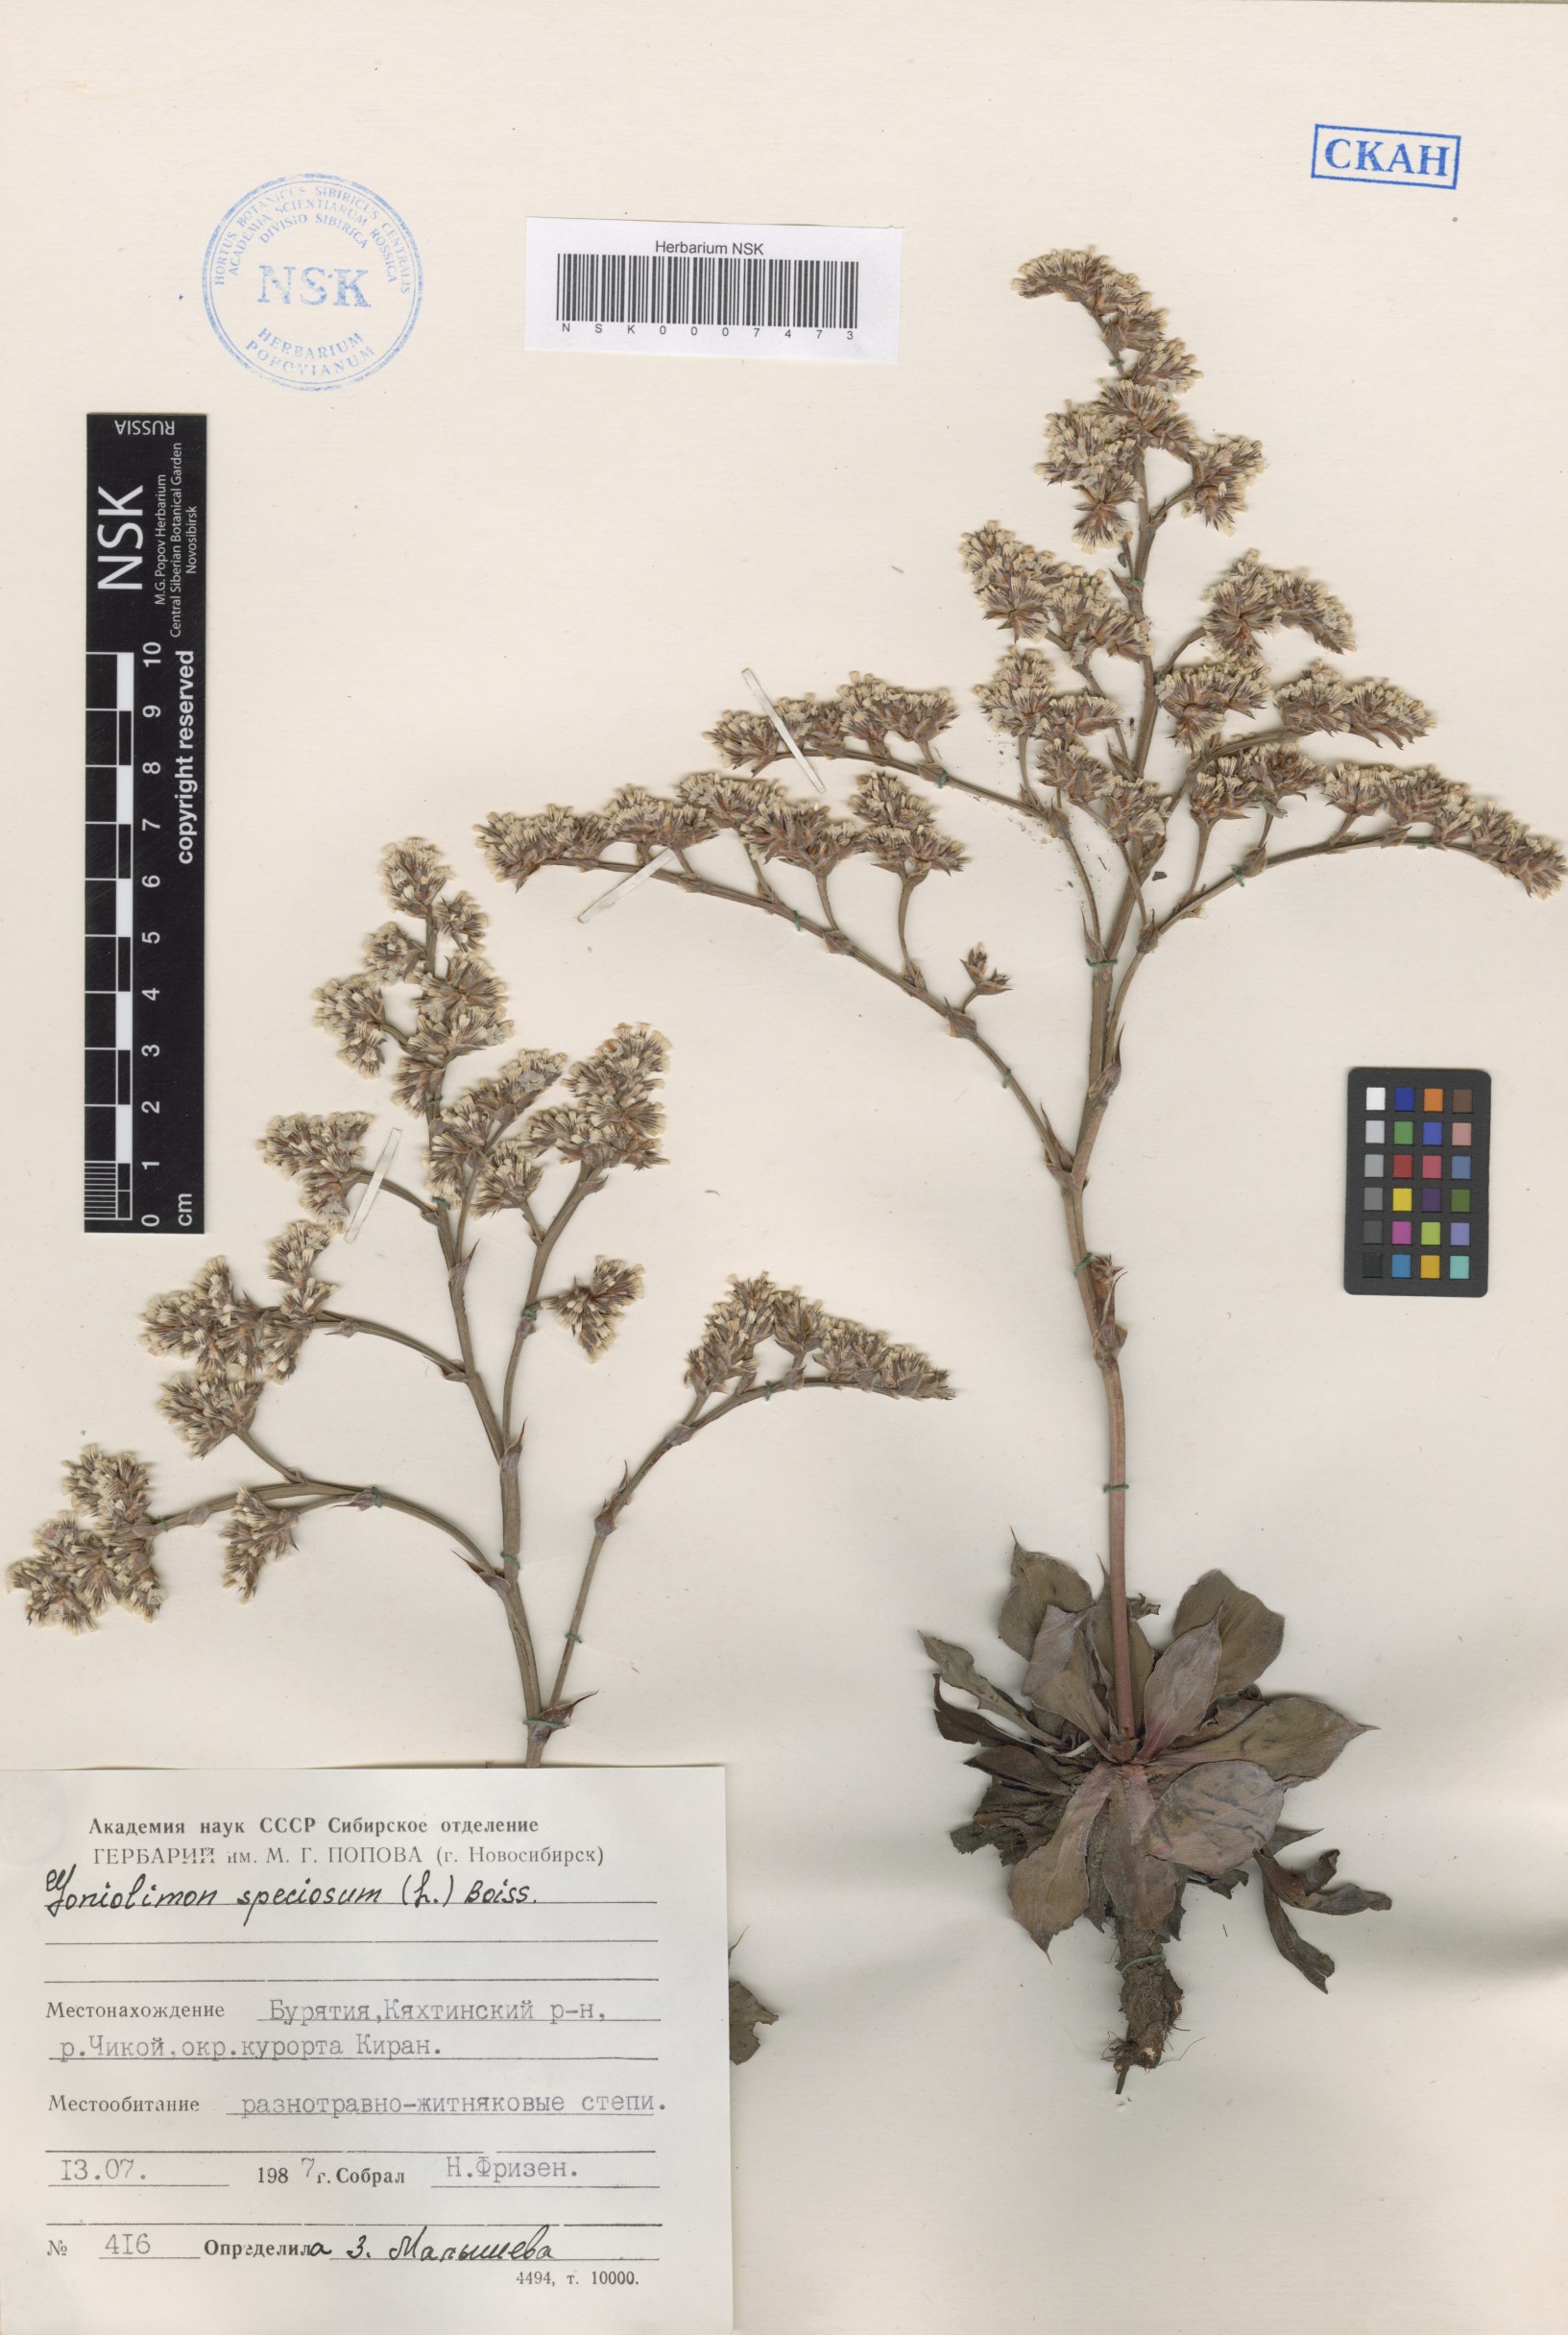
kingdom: Plantae
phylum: Tracheophyta
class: Magnoliopsida
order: Caryophyllales
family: Plumbaginaceae
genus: Goniolimon
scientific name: Goniolimon speciosum
